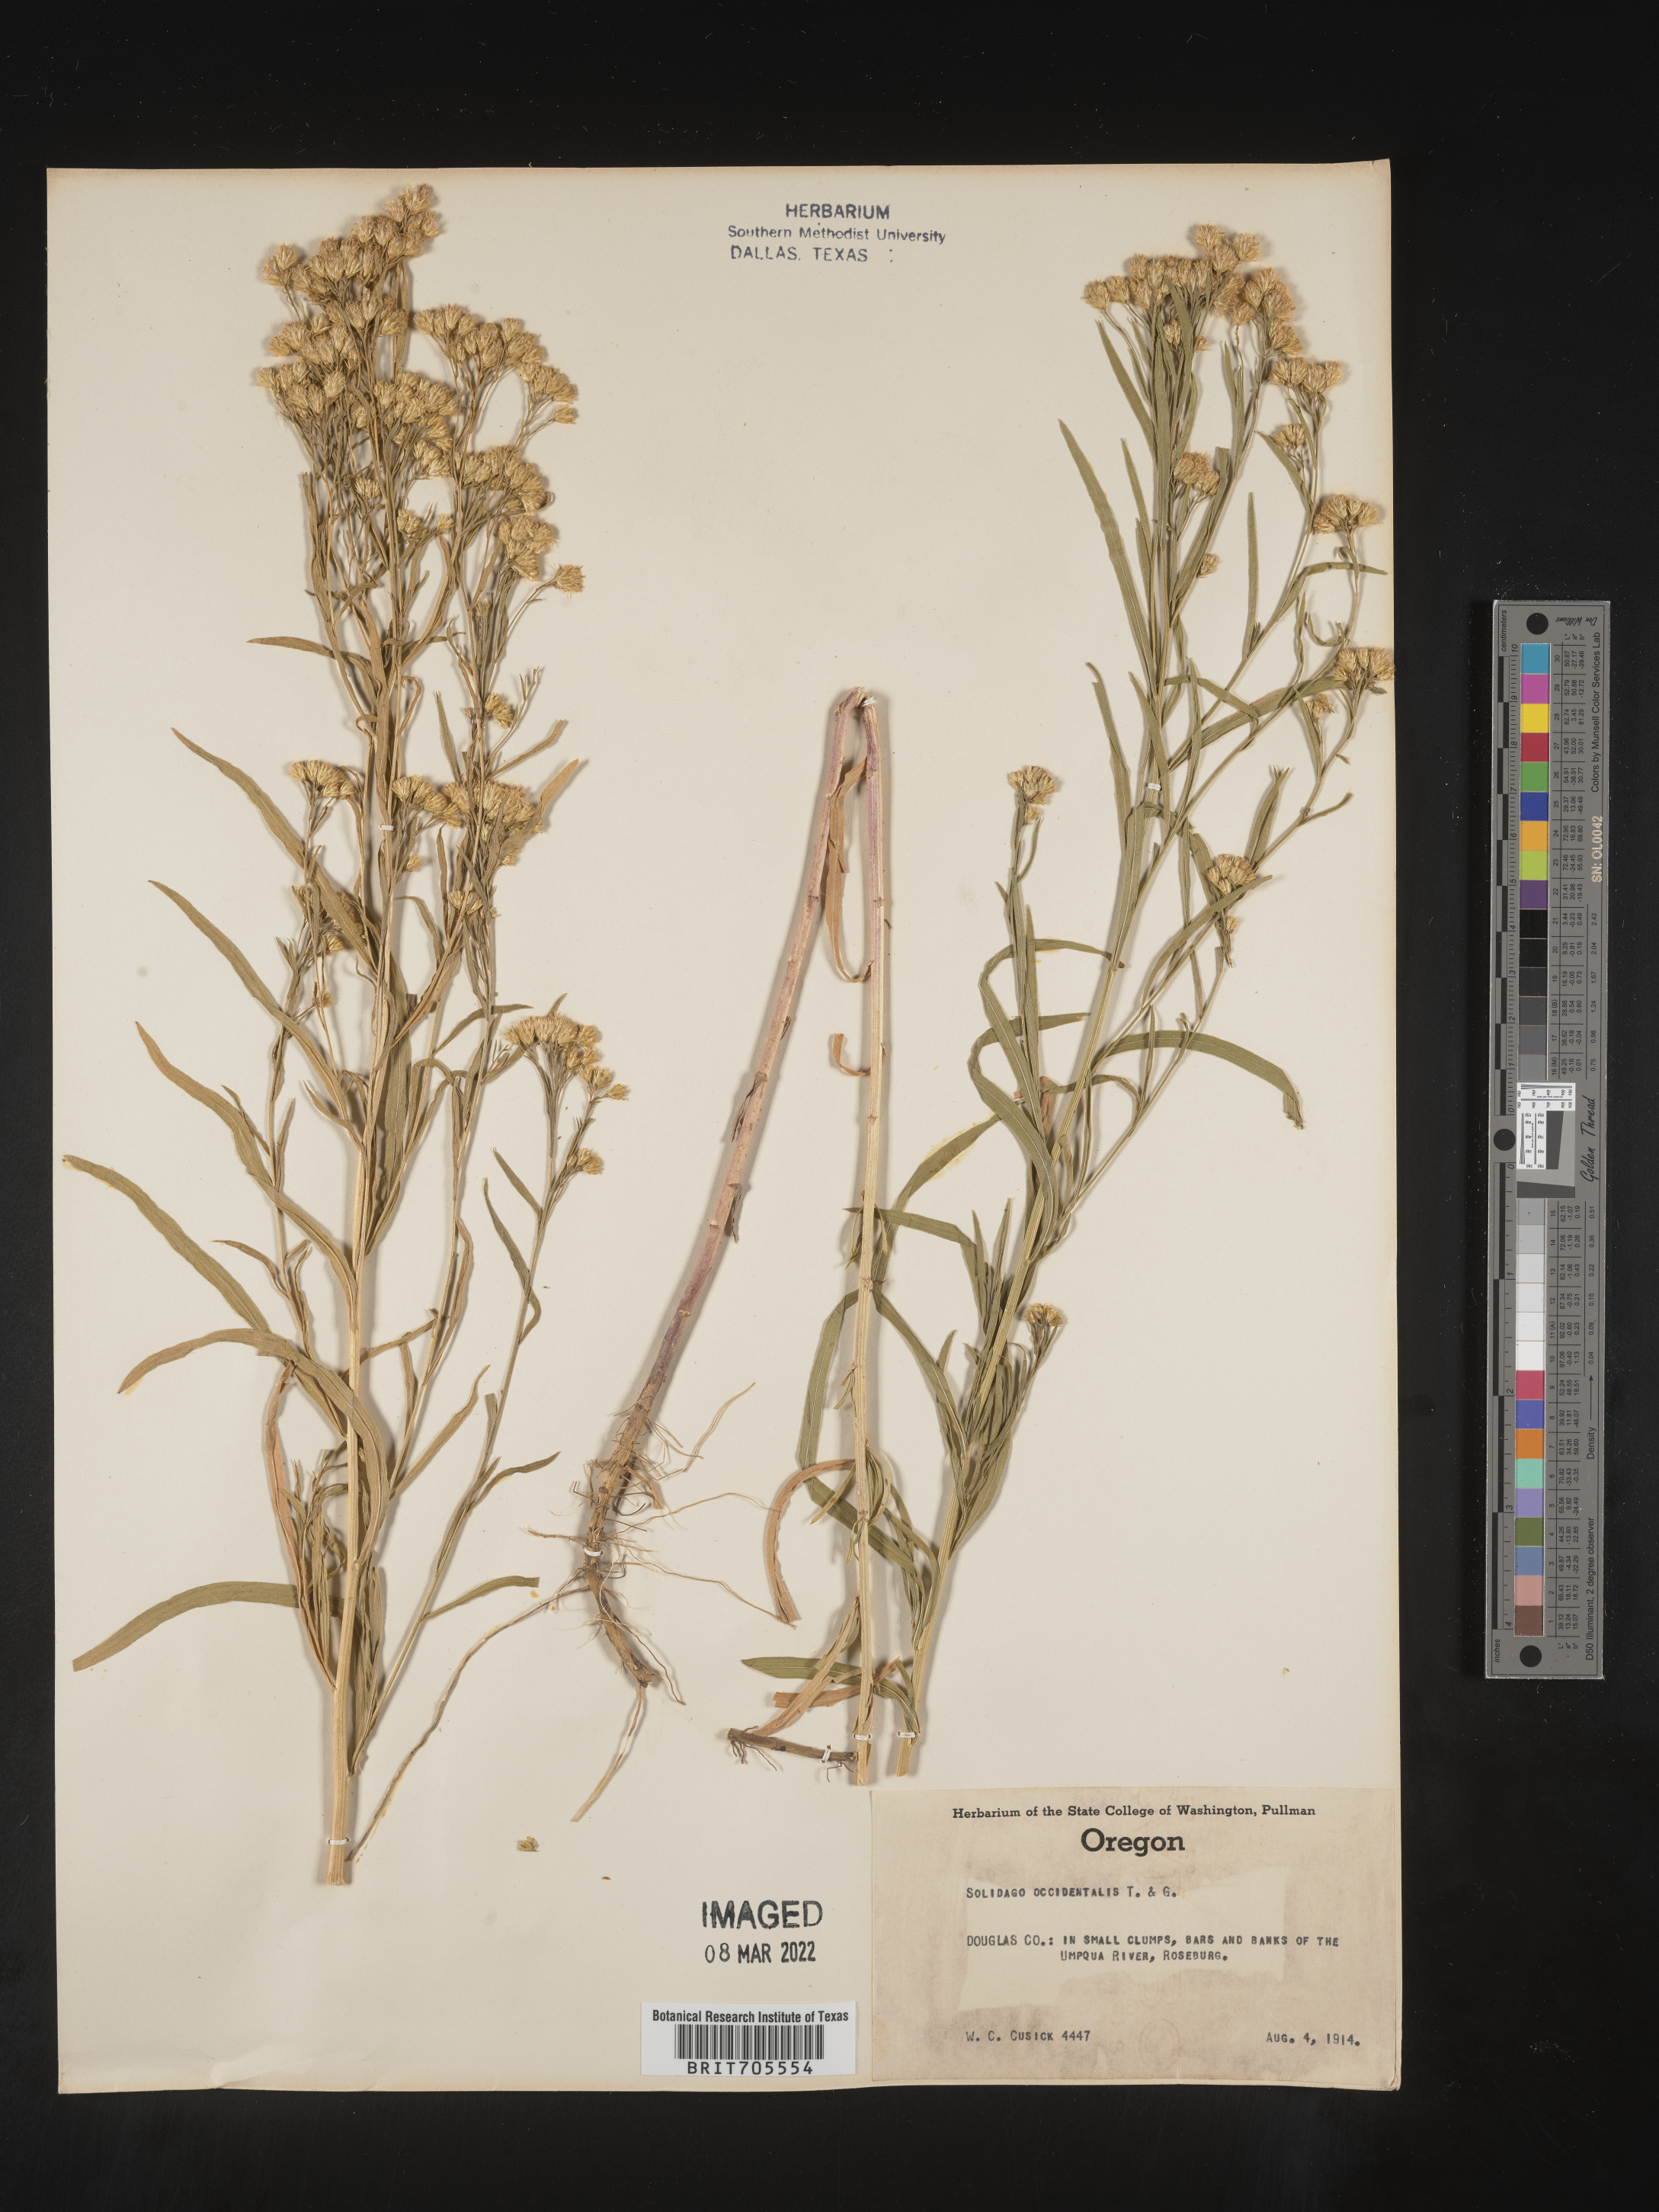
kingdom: Plantae
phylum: Tracheophyta
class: Magnoliopsida
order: Asterales
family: Asteraceae
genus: Euthamia
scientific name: Euthamia occidentalis
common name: Western goldentop
